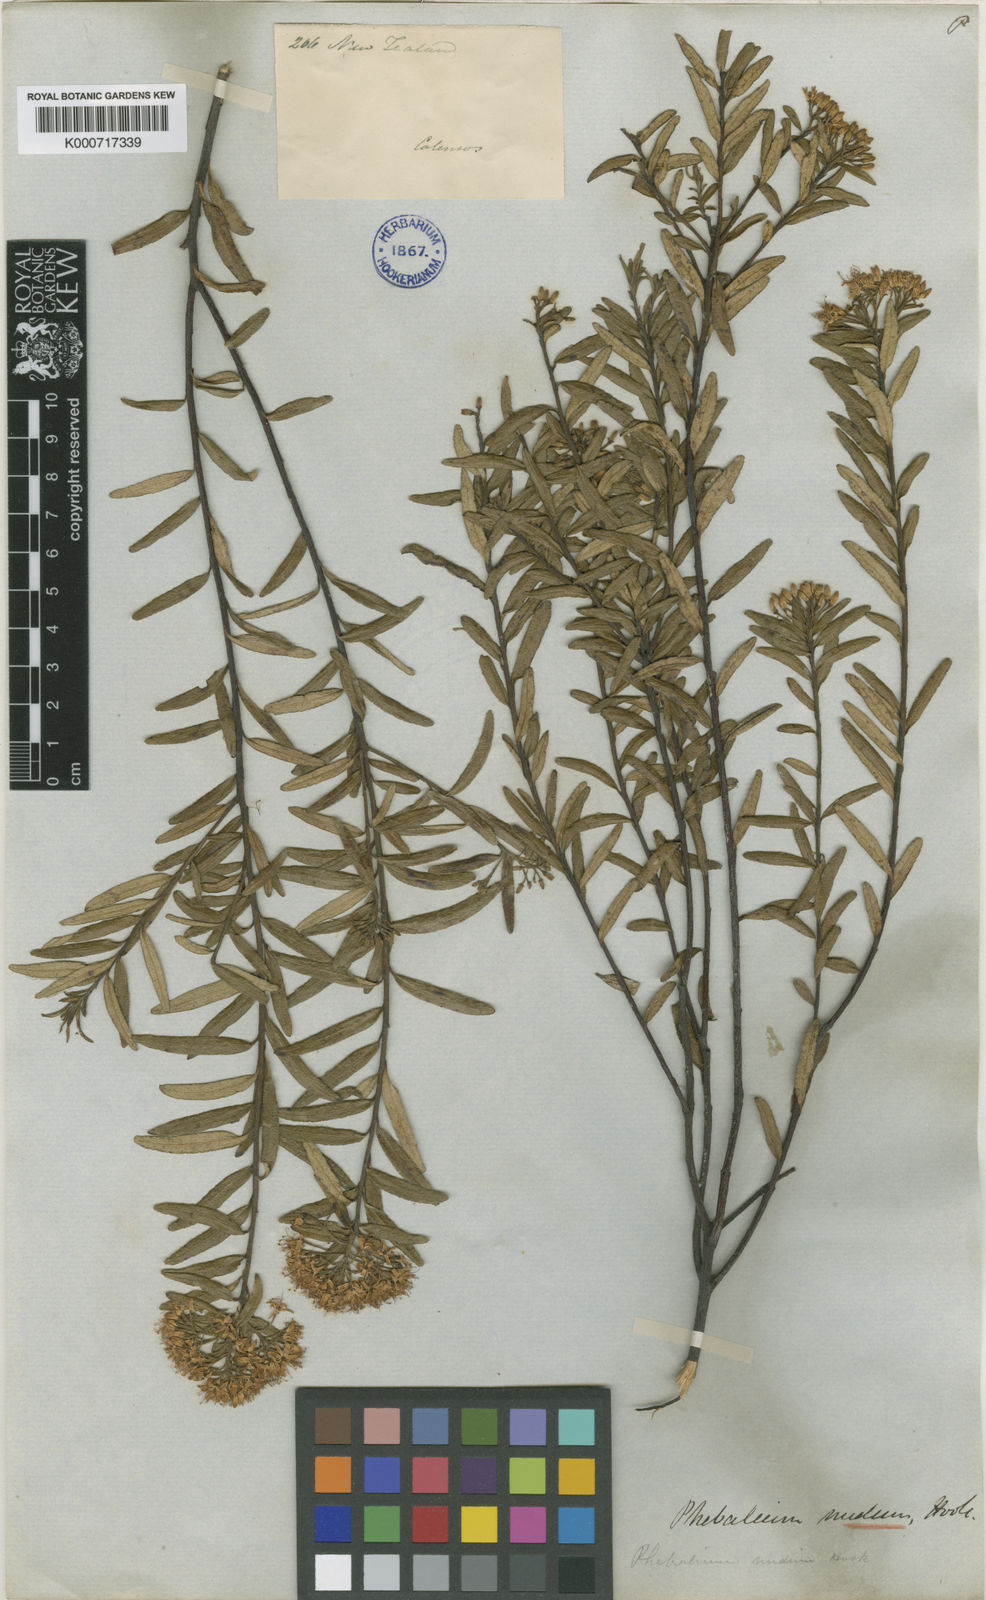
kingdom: Plantae
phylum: Tracheophyta
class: Magnoliopsida
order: Sapindales
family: Rutaceae
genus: Leionema
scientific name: Leionema nudum
